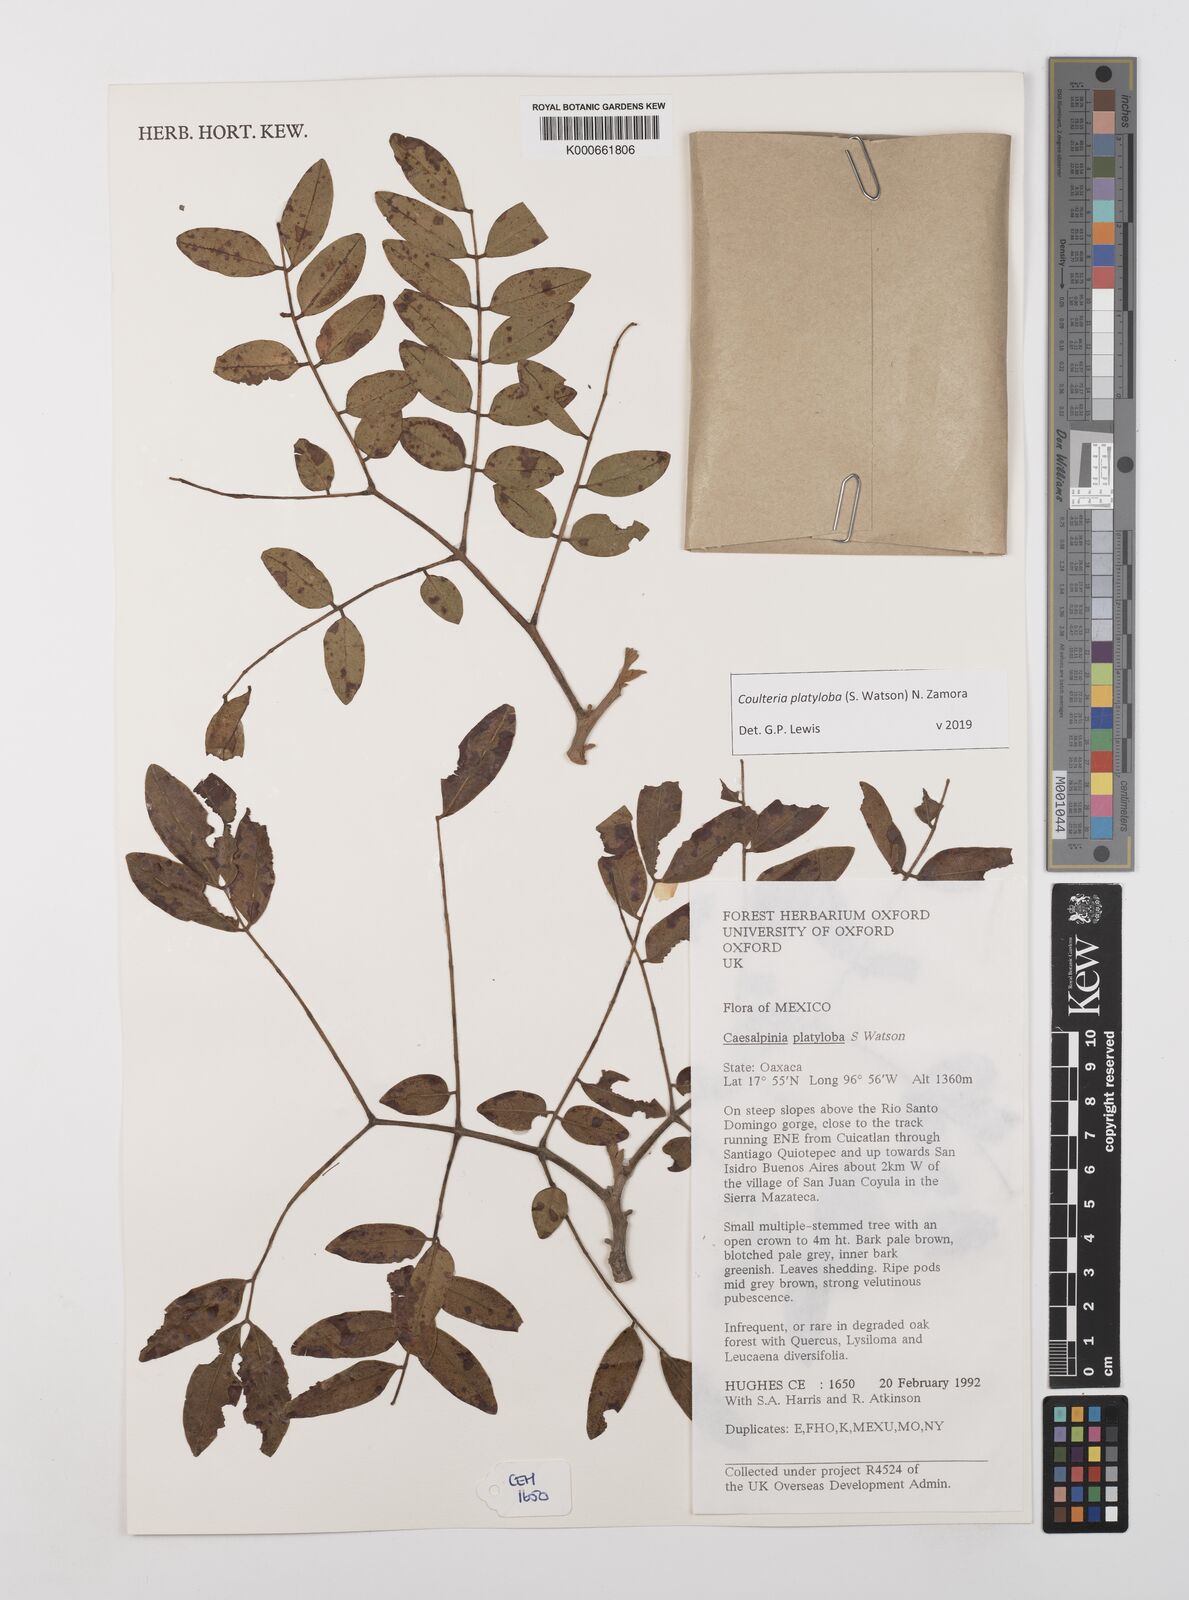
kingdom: Plantae
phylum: Tracheophyta
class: Magnoliopsida
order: Fabales
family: Fabaceae
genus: Coulteria
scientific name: Coulteria platyloba
